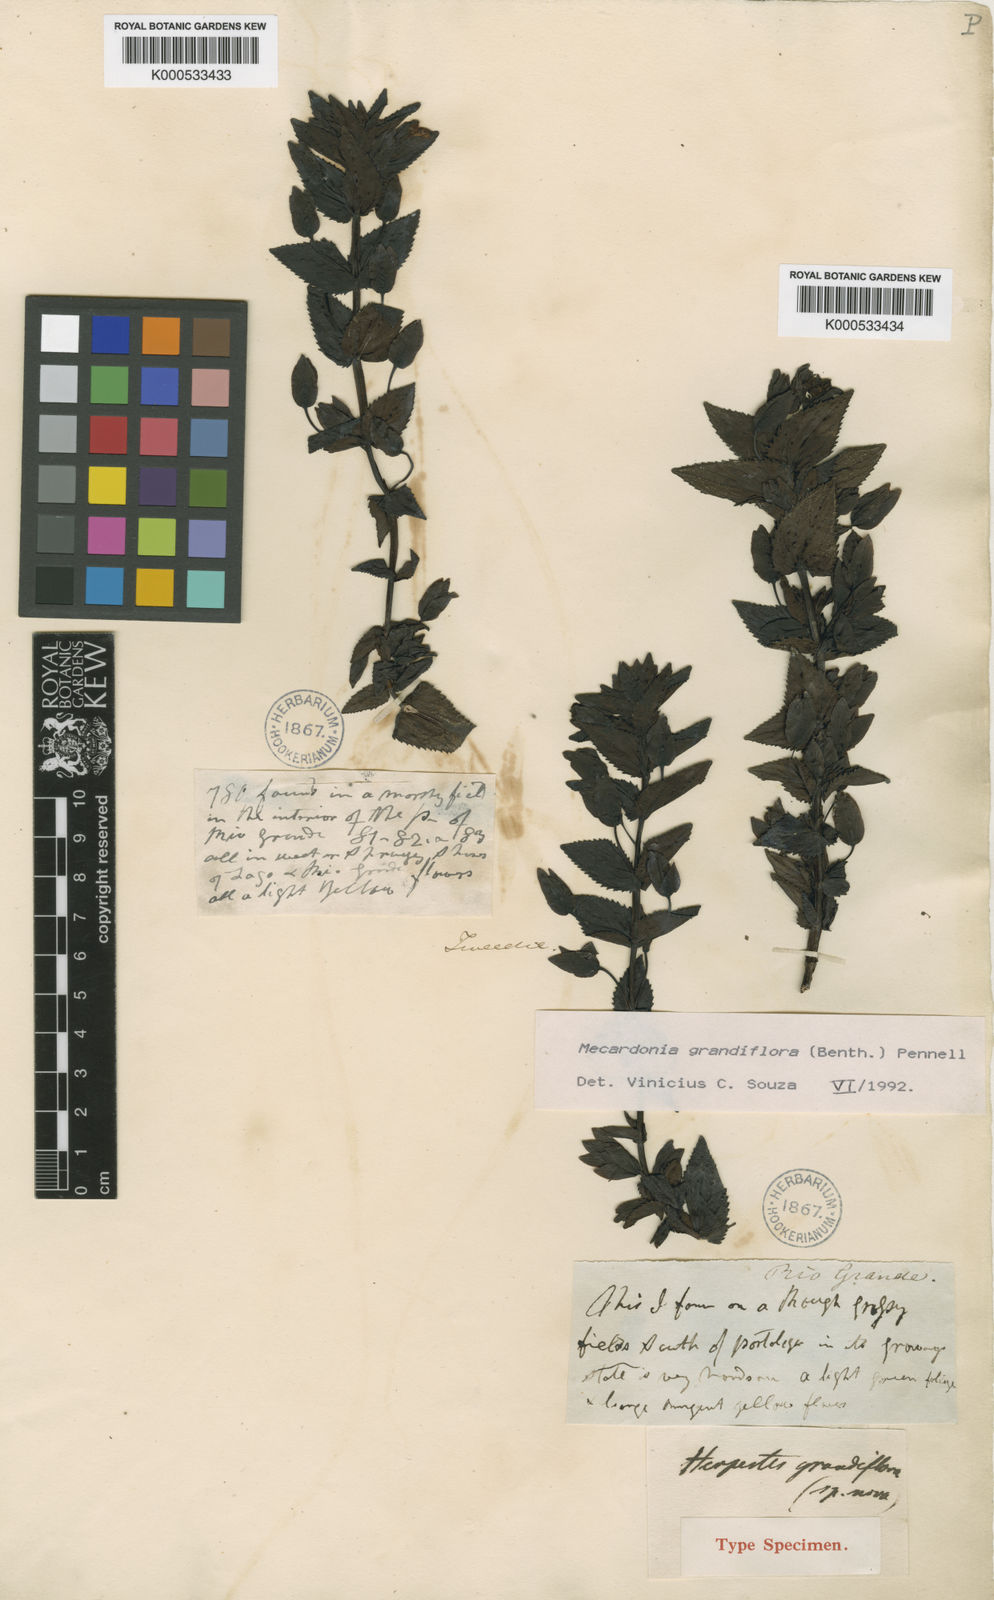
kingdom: Plantae
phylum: Tracheophyta
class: Magnoliopsida
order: Lamiales
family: Plantaginaceae
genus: Mecardonia
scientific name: Mecardonia grandiflora
